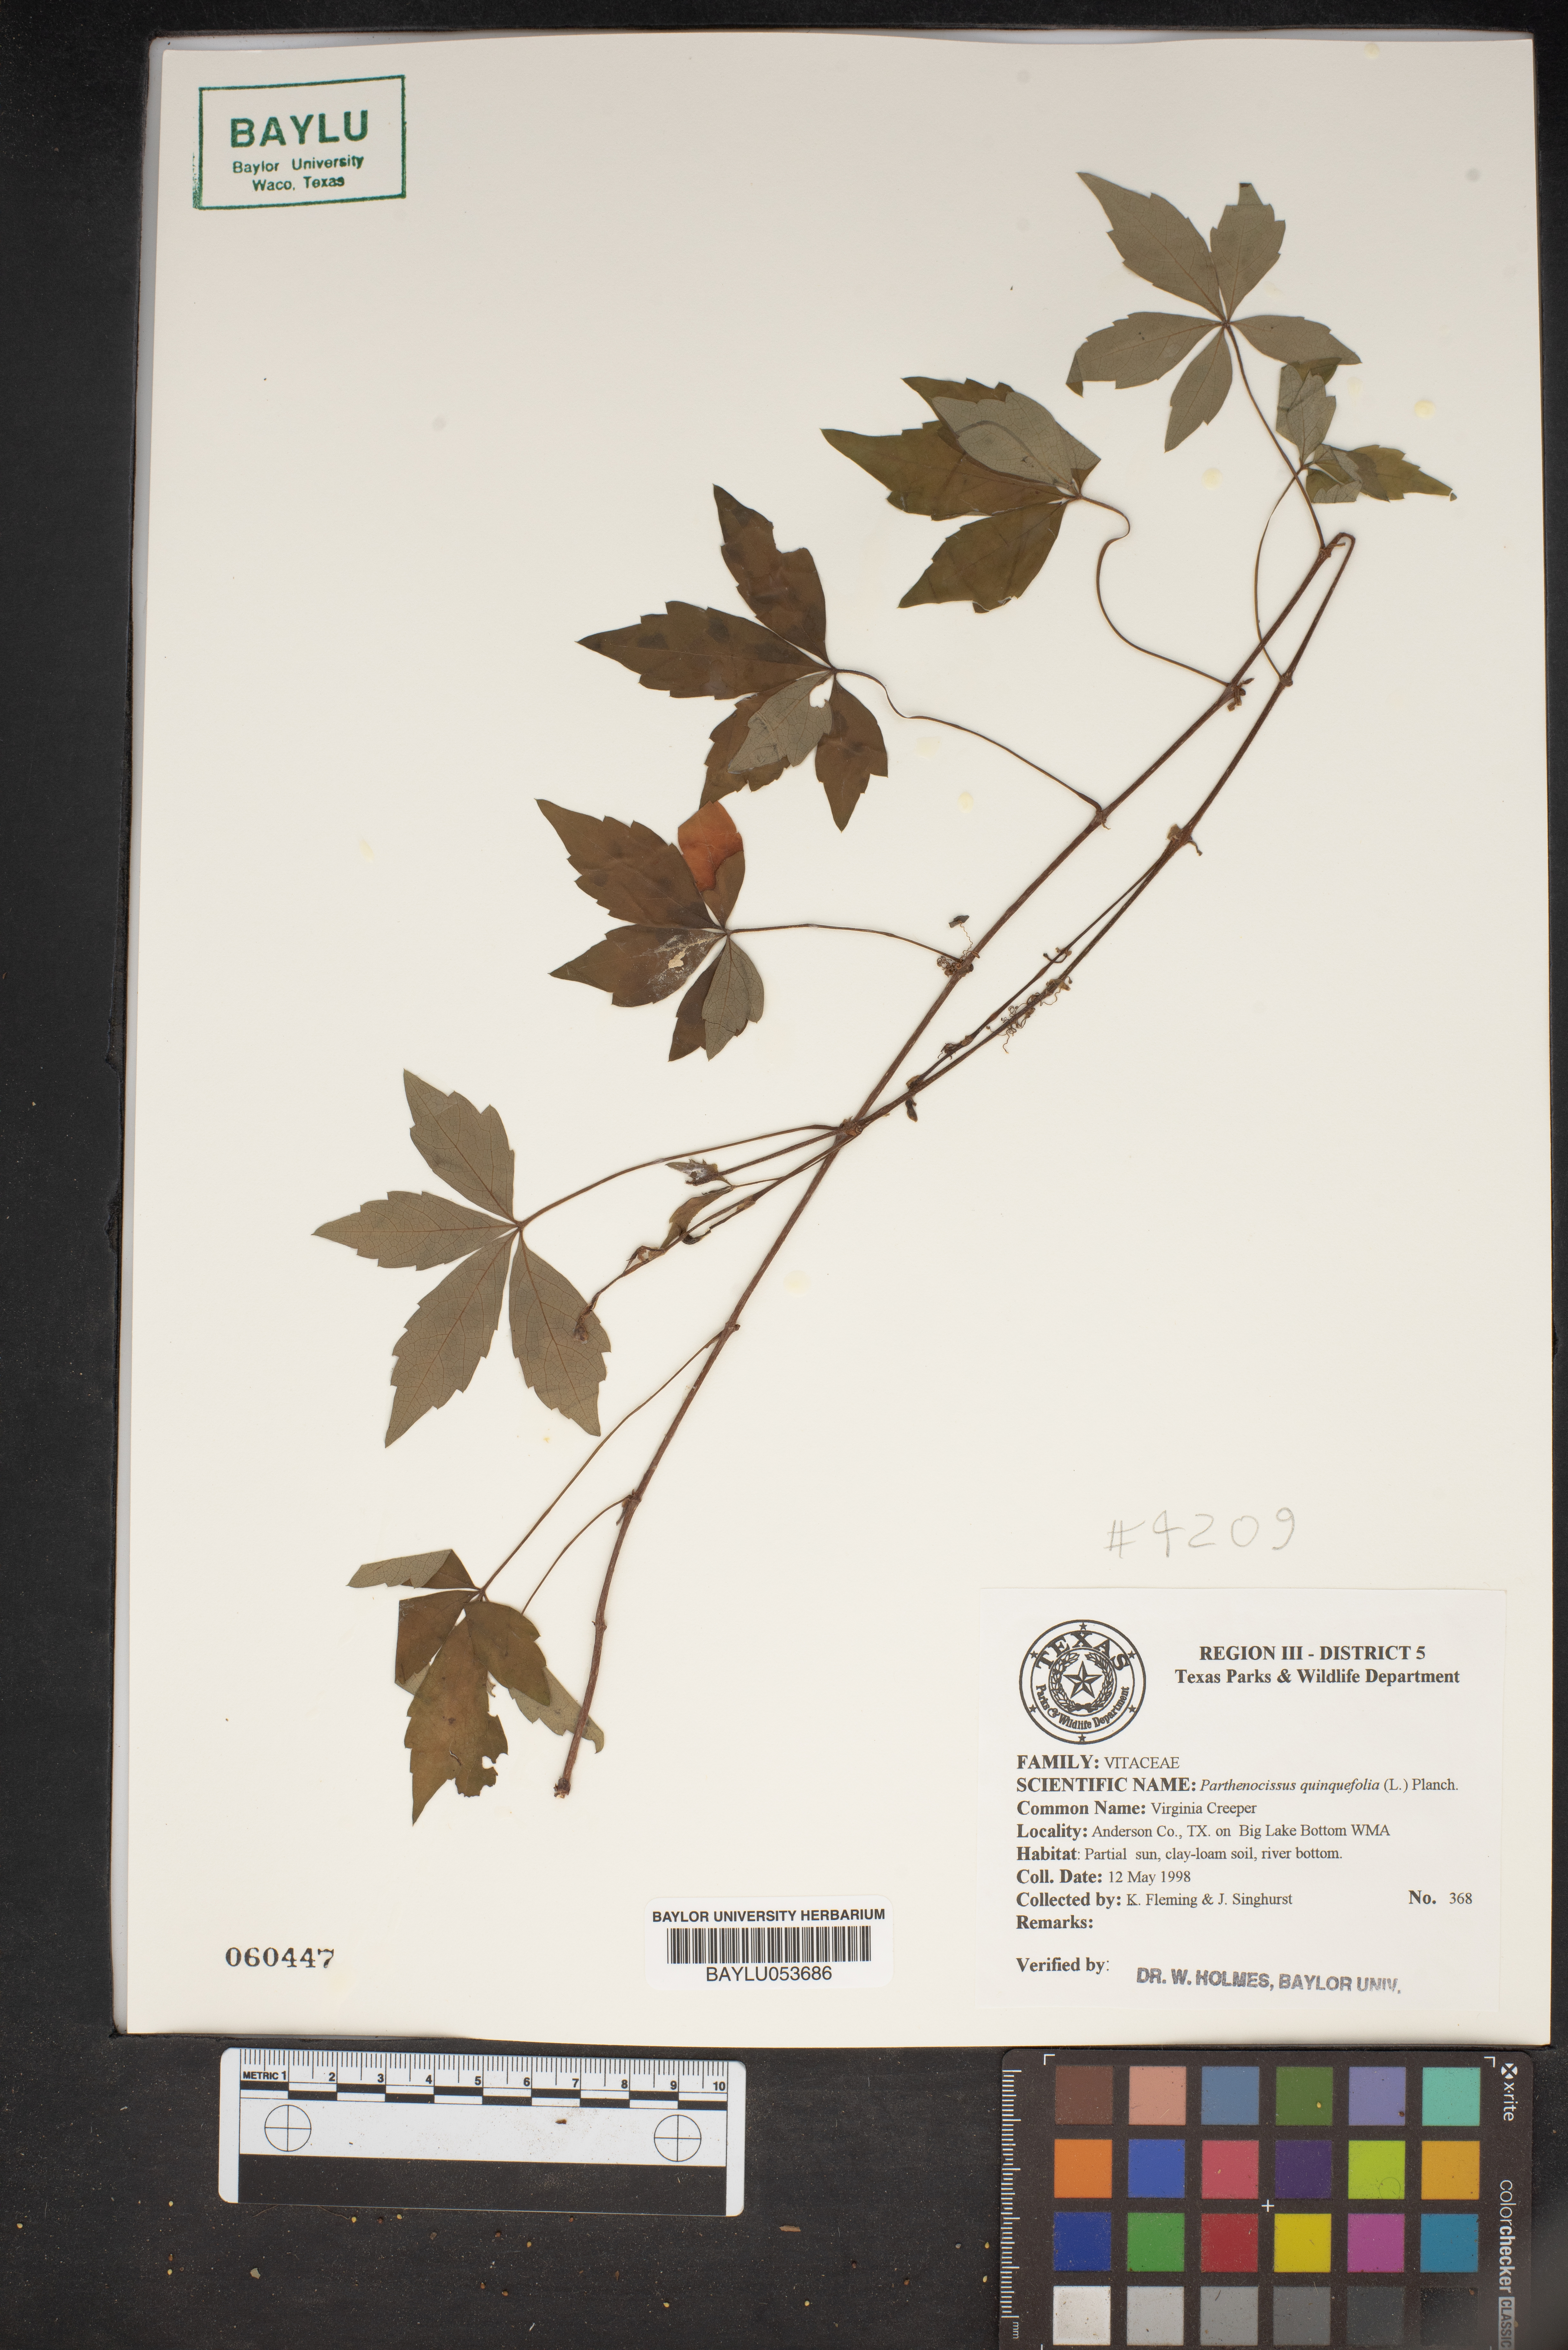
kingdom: Plantae
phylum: Tracheophyta
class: Magnoliopsida
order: Vitales
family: Vitaceae
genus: Parthenocissus
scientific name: Parthenocissus quinquefolia
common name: Virginia-creeper
